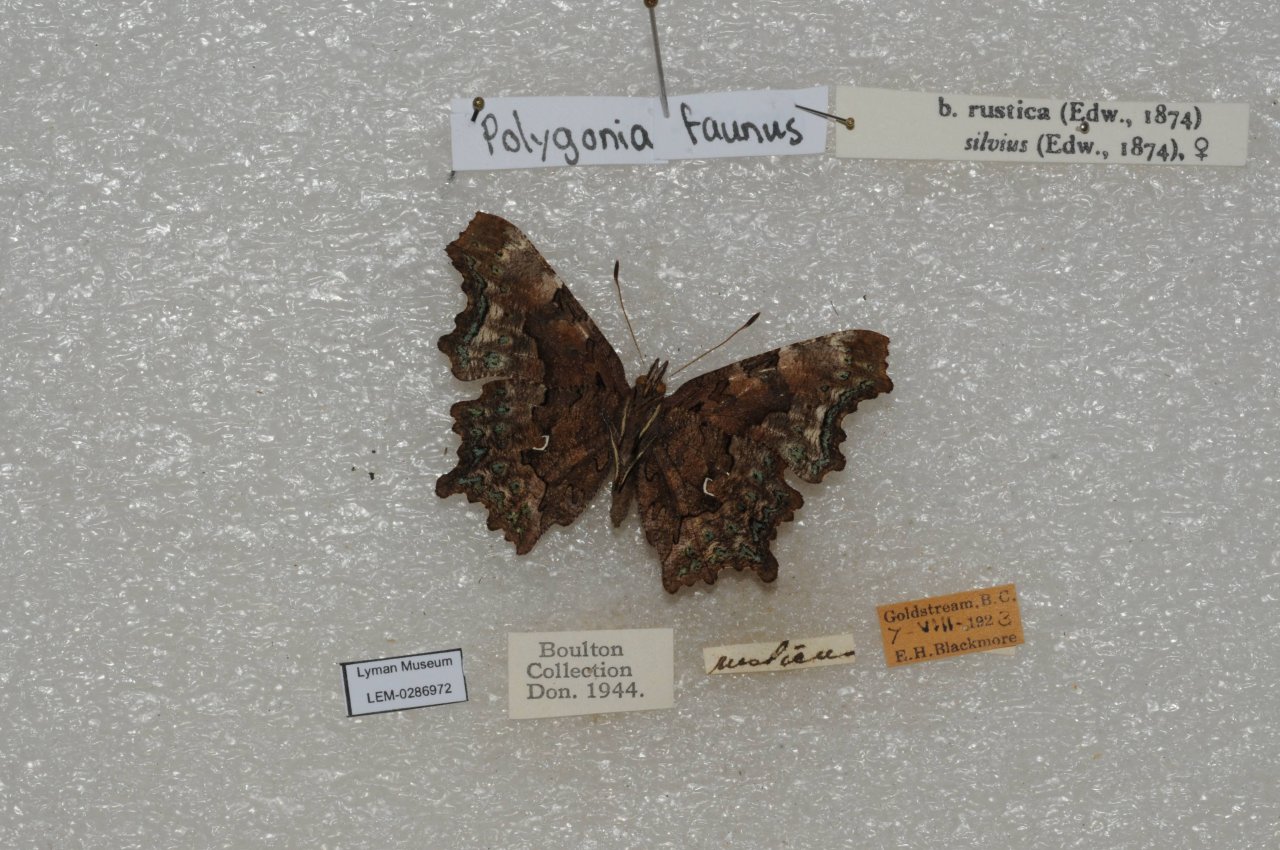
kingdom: Animalia
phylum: Arthropoda
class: Insecta
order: Lepidoptera
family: Nymphalidae
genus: Polygonia
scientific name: Polygonia faunus
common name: Green Comma
